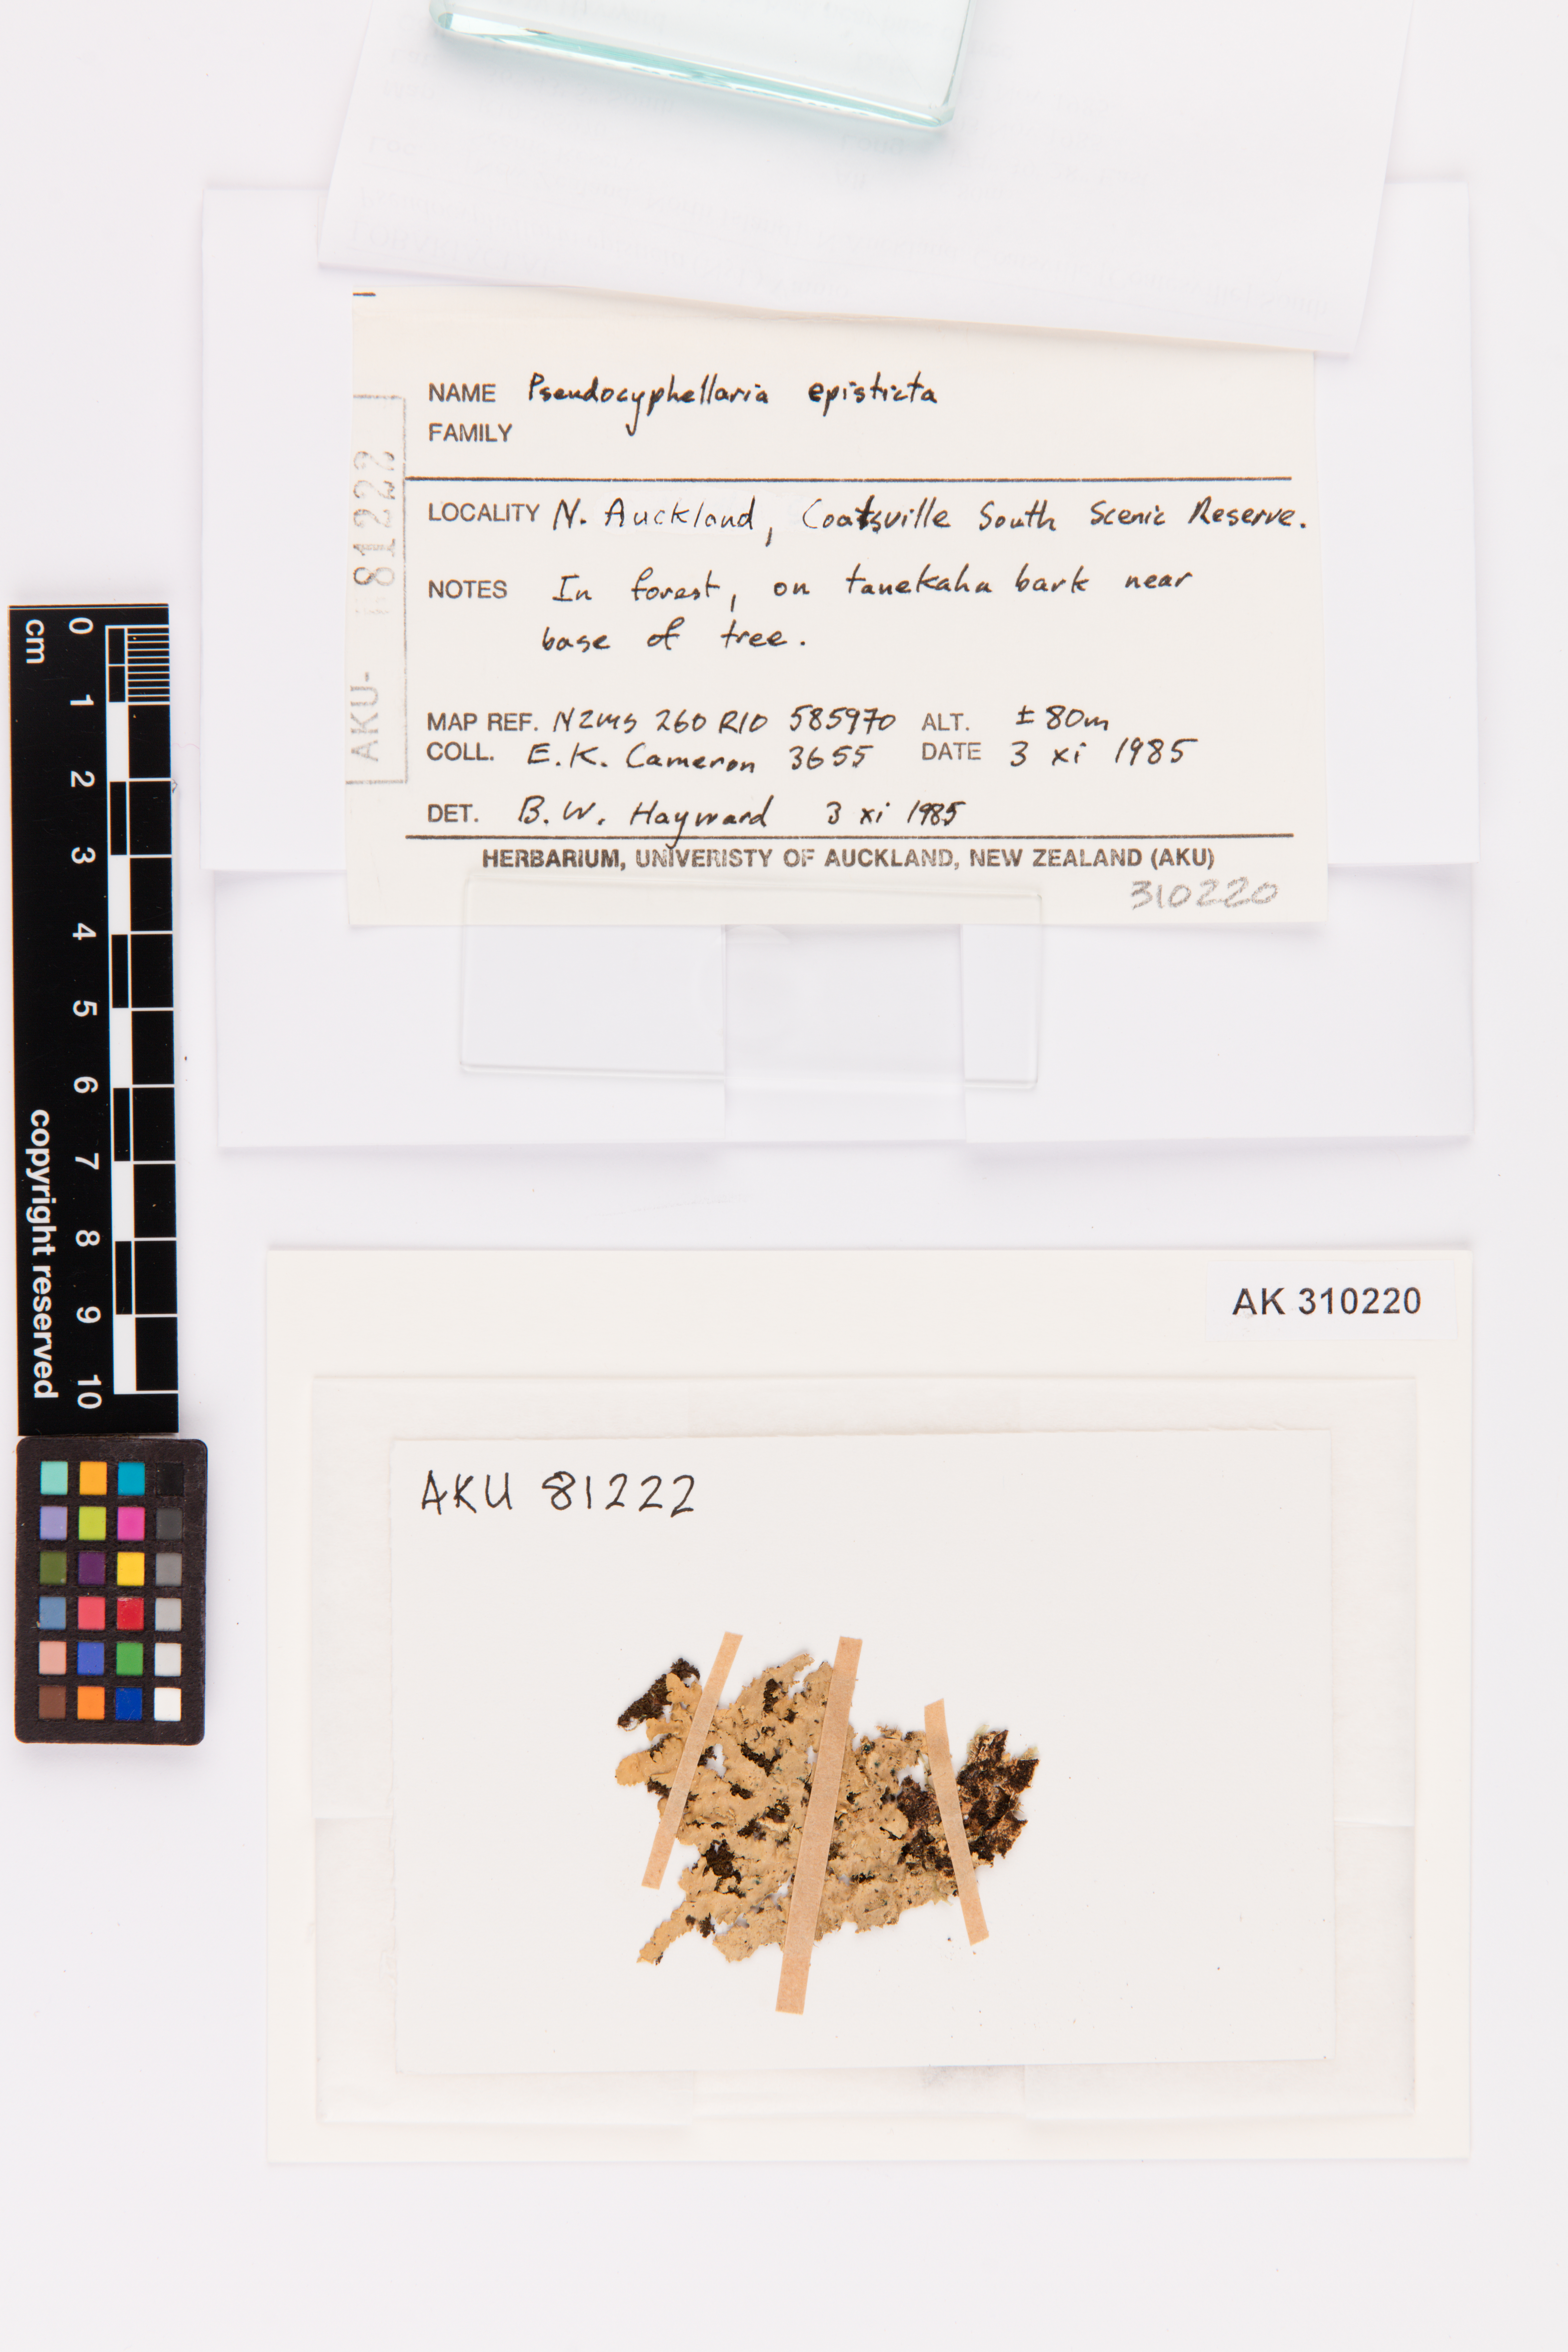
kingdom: Fungi
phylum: Ascomycota
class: Lecanoromycetes
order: Peltigerales
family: Lobariaceae
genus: Pseudocyphellaria
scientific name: Pseudocyphellaria episticta
